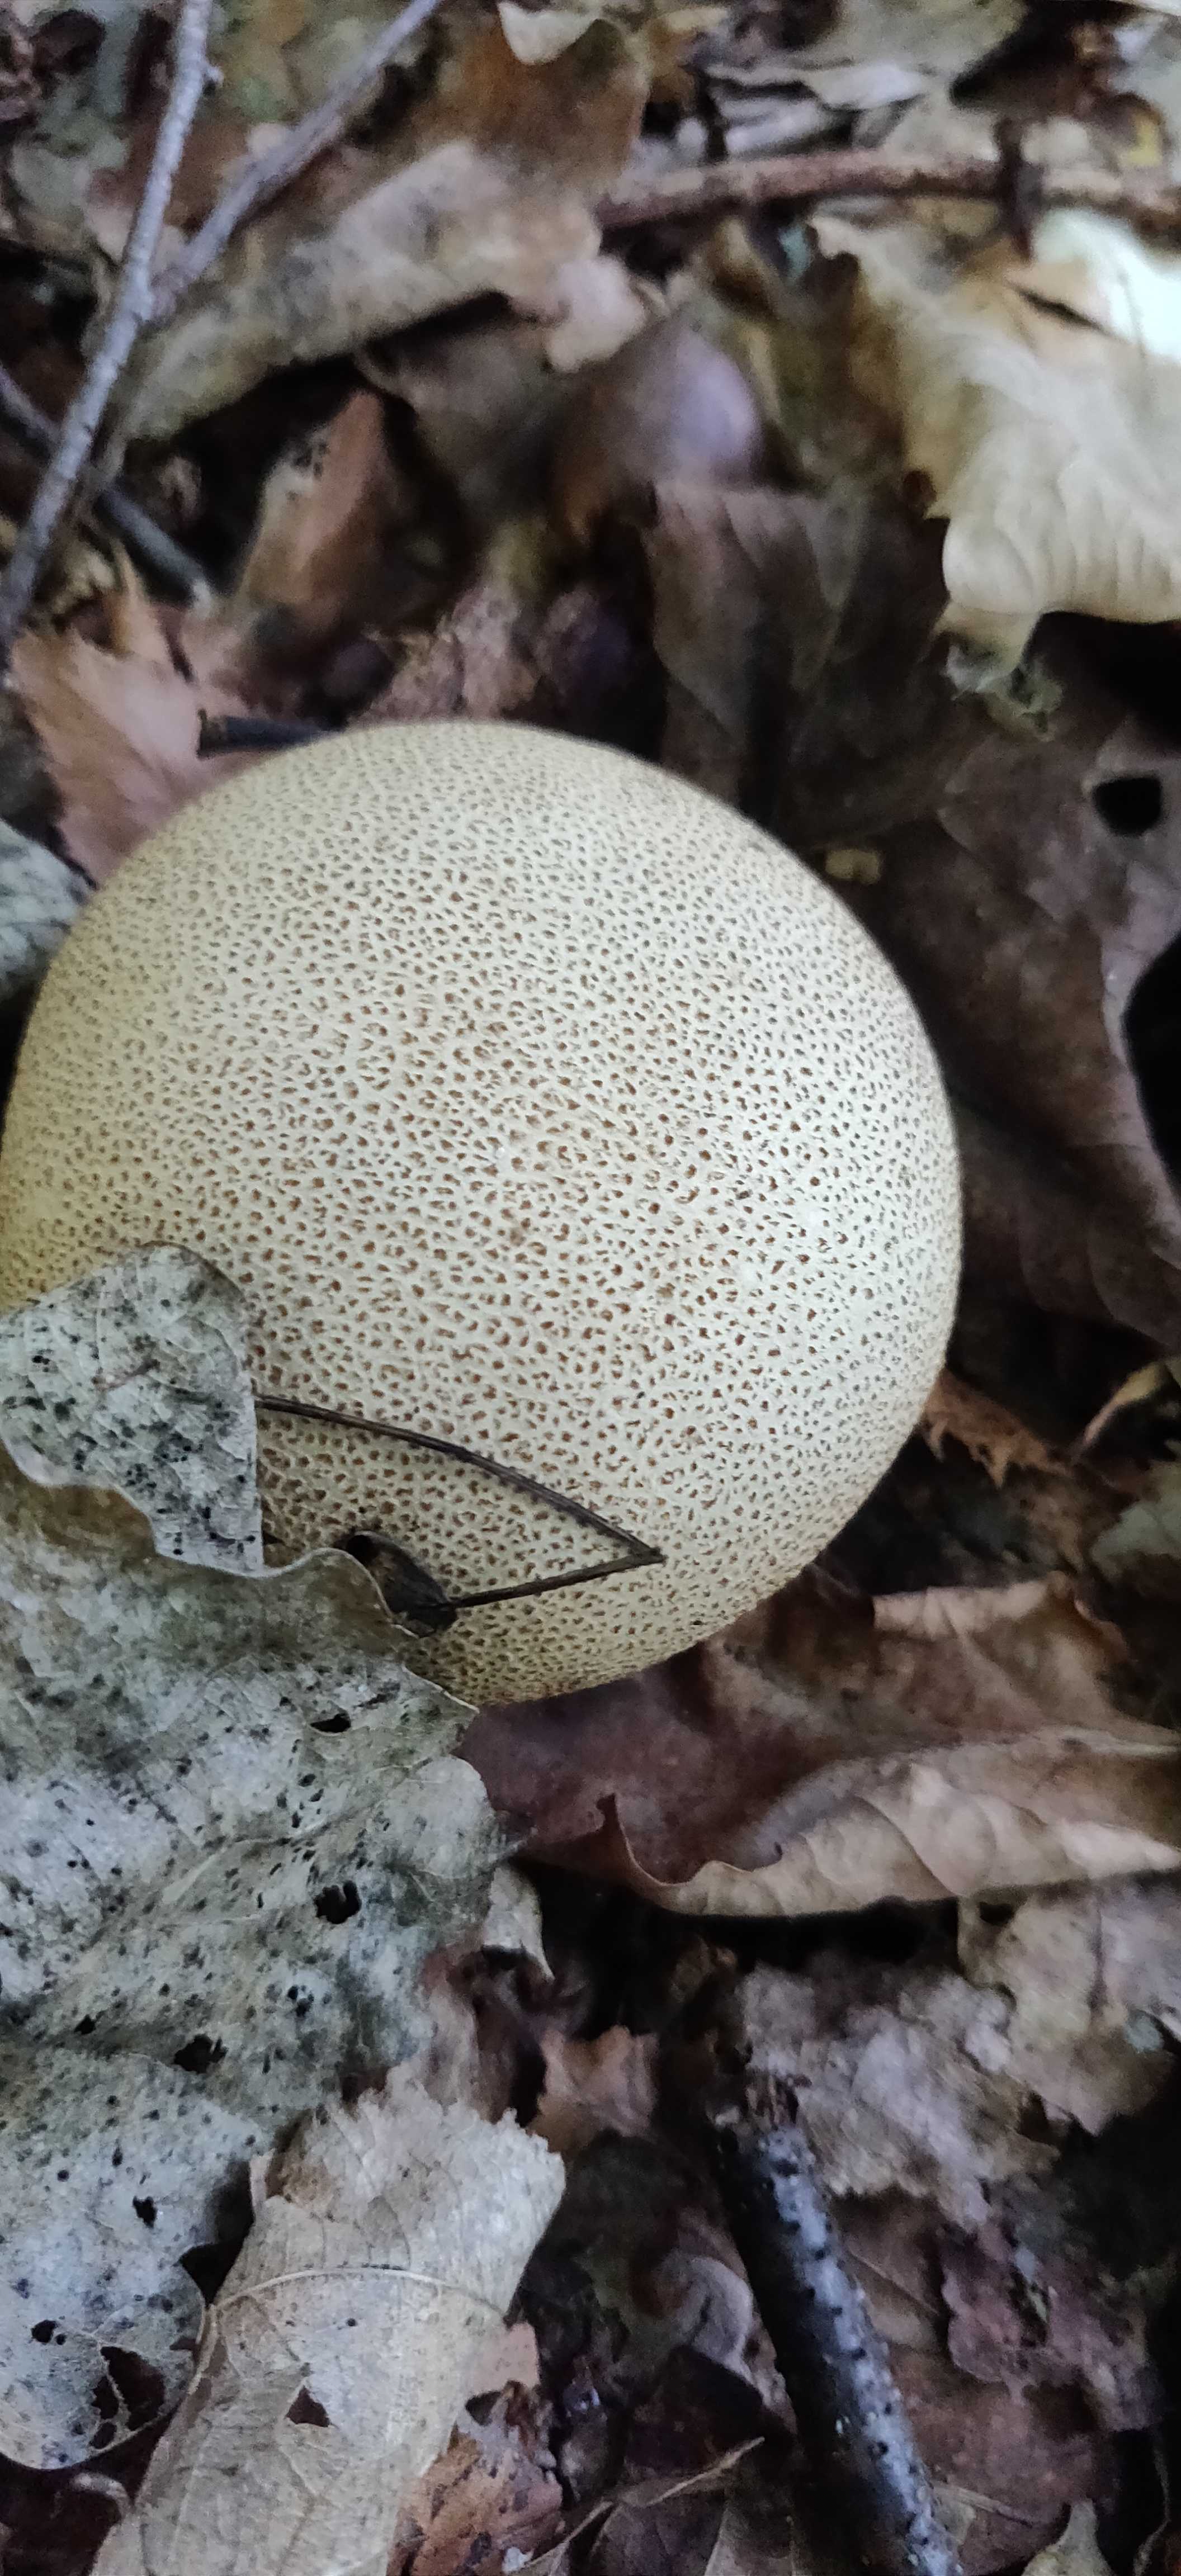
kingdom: Fungi
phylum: Basidiomycota
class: Agaricomycetes
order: Boletales
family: Sclerodermataceae
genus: Scleroderma
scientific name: Scleroderma
